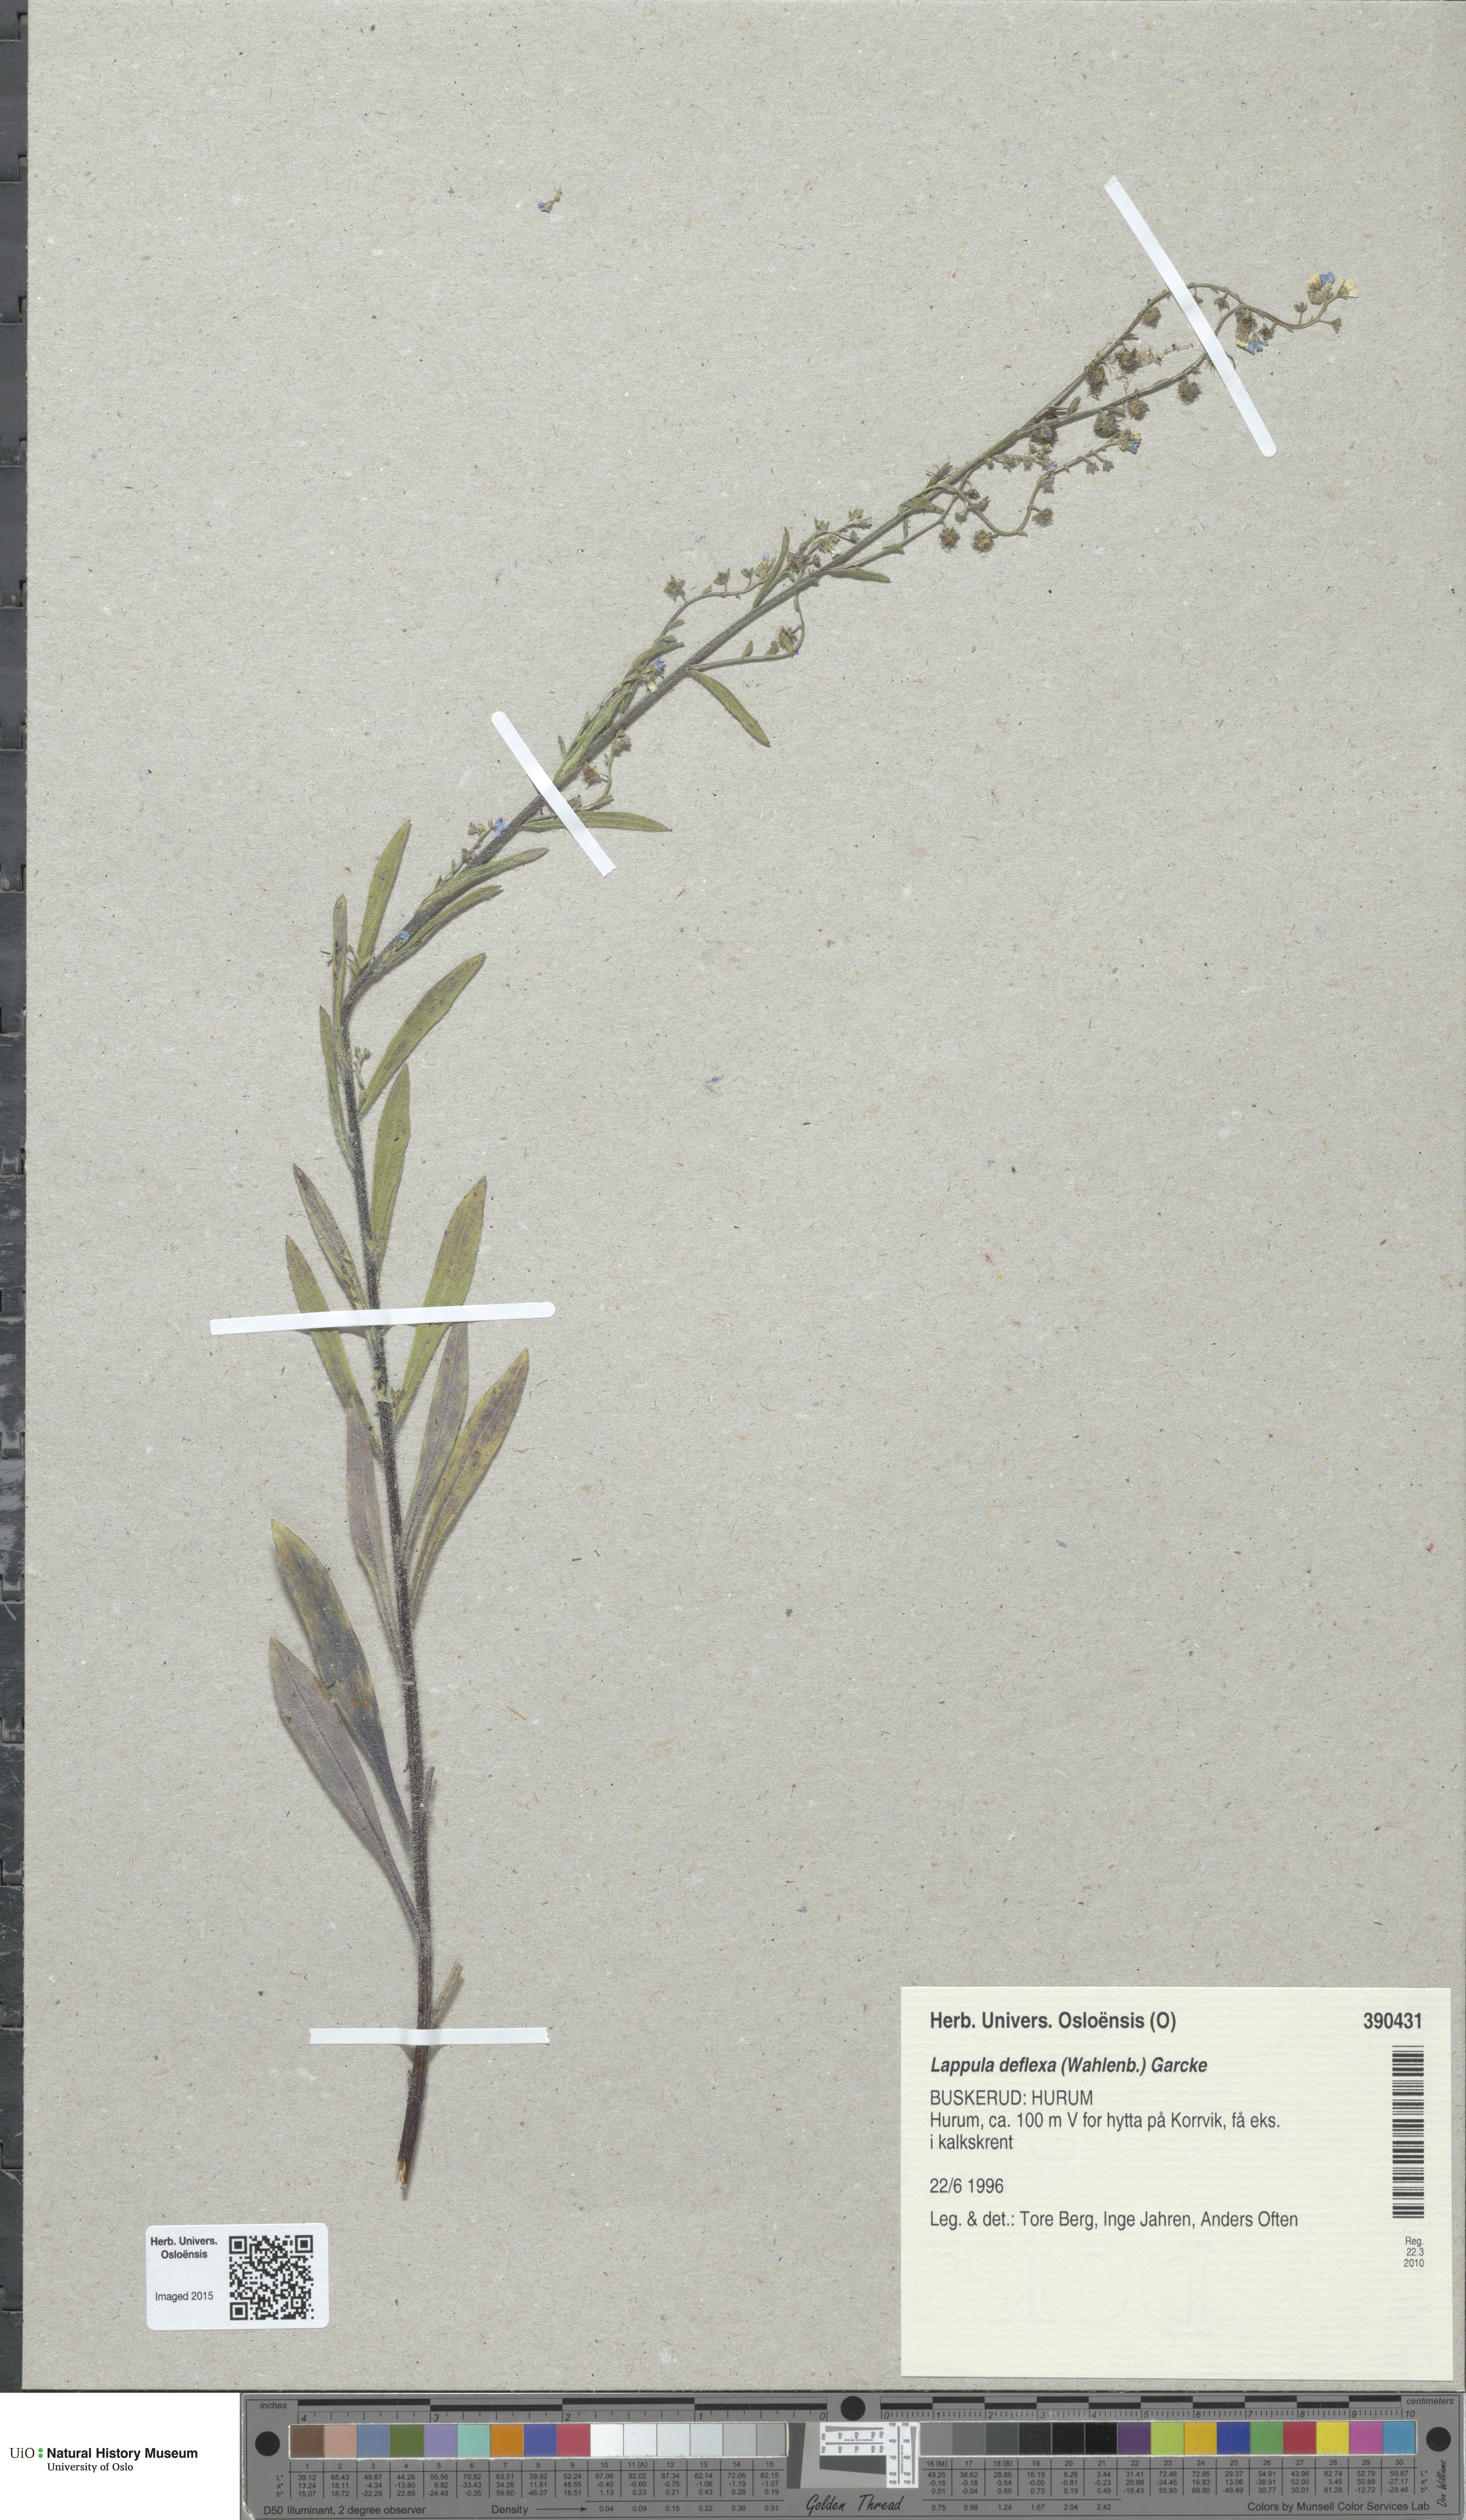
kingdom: Plantae
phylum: Tracheophyta
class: Magnoliopsida
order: Boraginales
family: Boraginaceae
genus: Hackelia
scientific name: Hackelia deflexa
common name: Nodding stickseed
